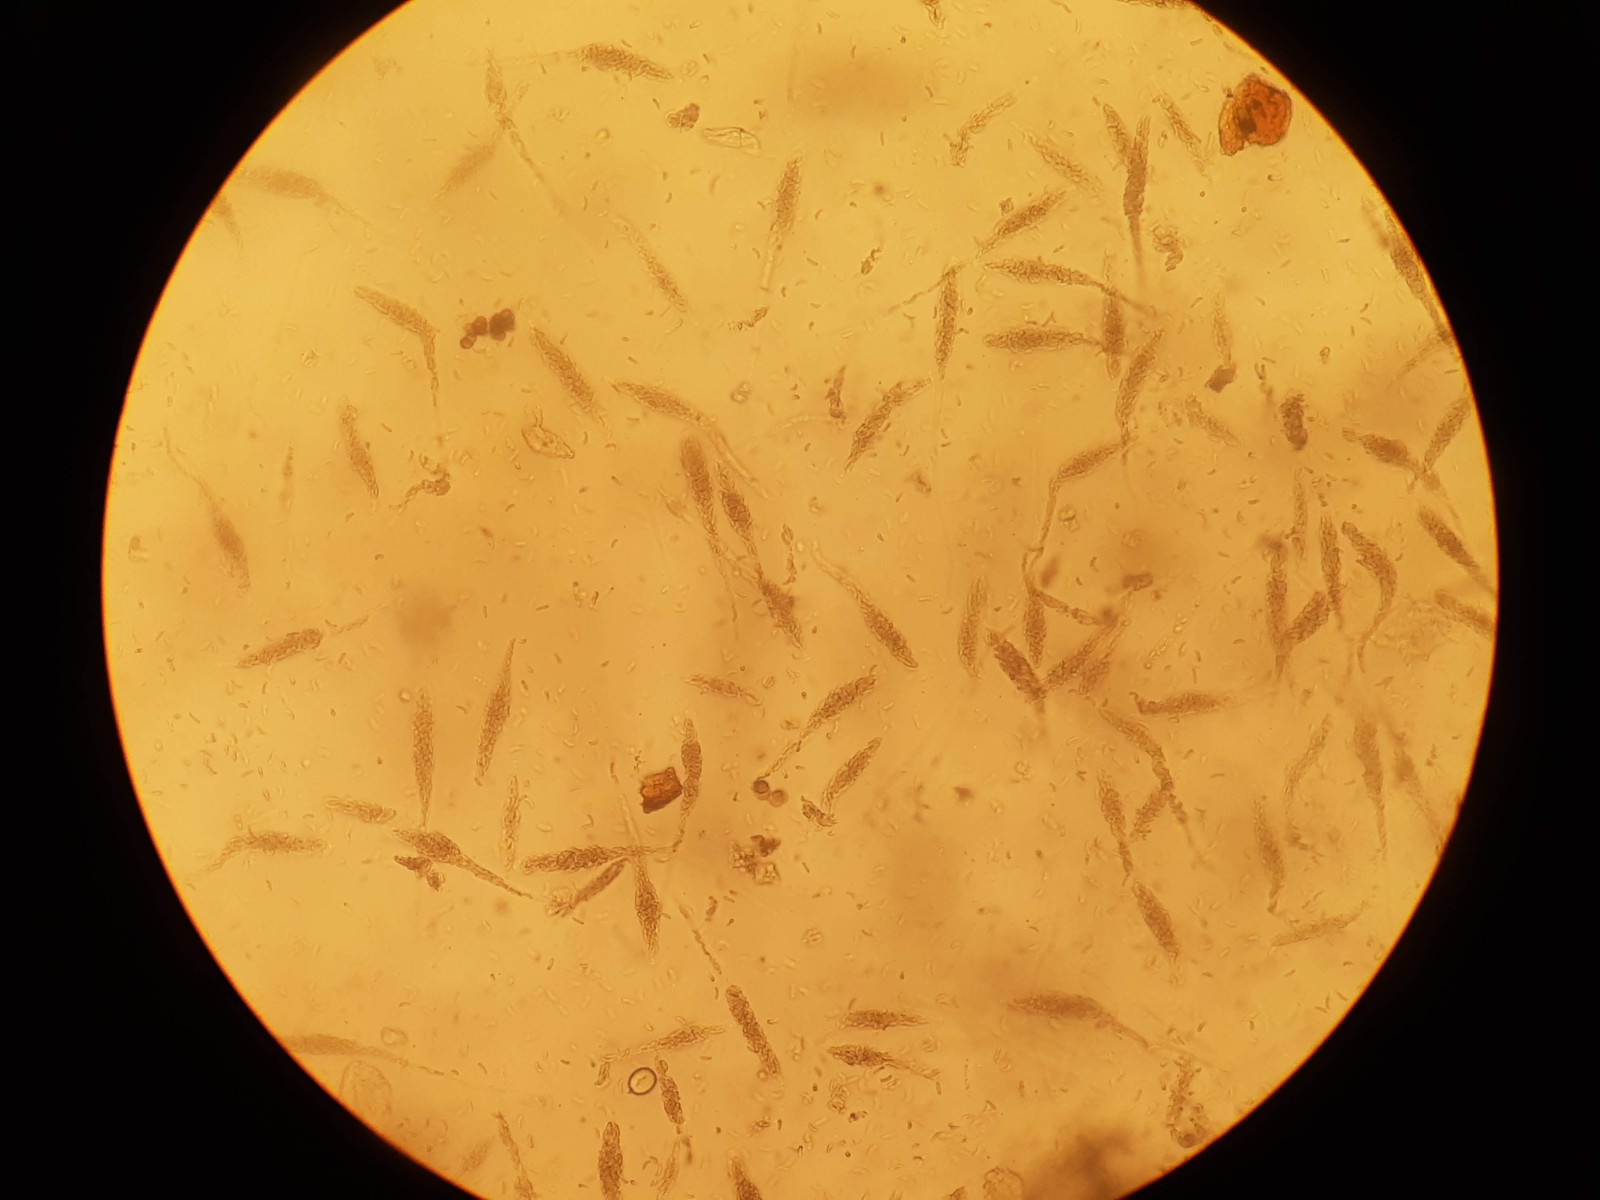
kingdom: Fungi
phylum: Ascomycota
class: Sordariomycetes
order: Xylariales
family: Diatrypaceae
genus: Diatrypella
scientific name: Diatrypella favacea
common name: klemt kulskorpe
